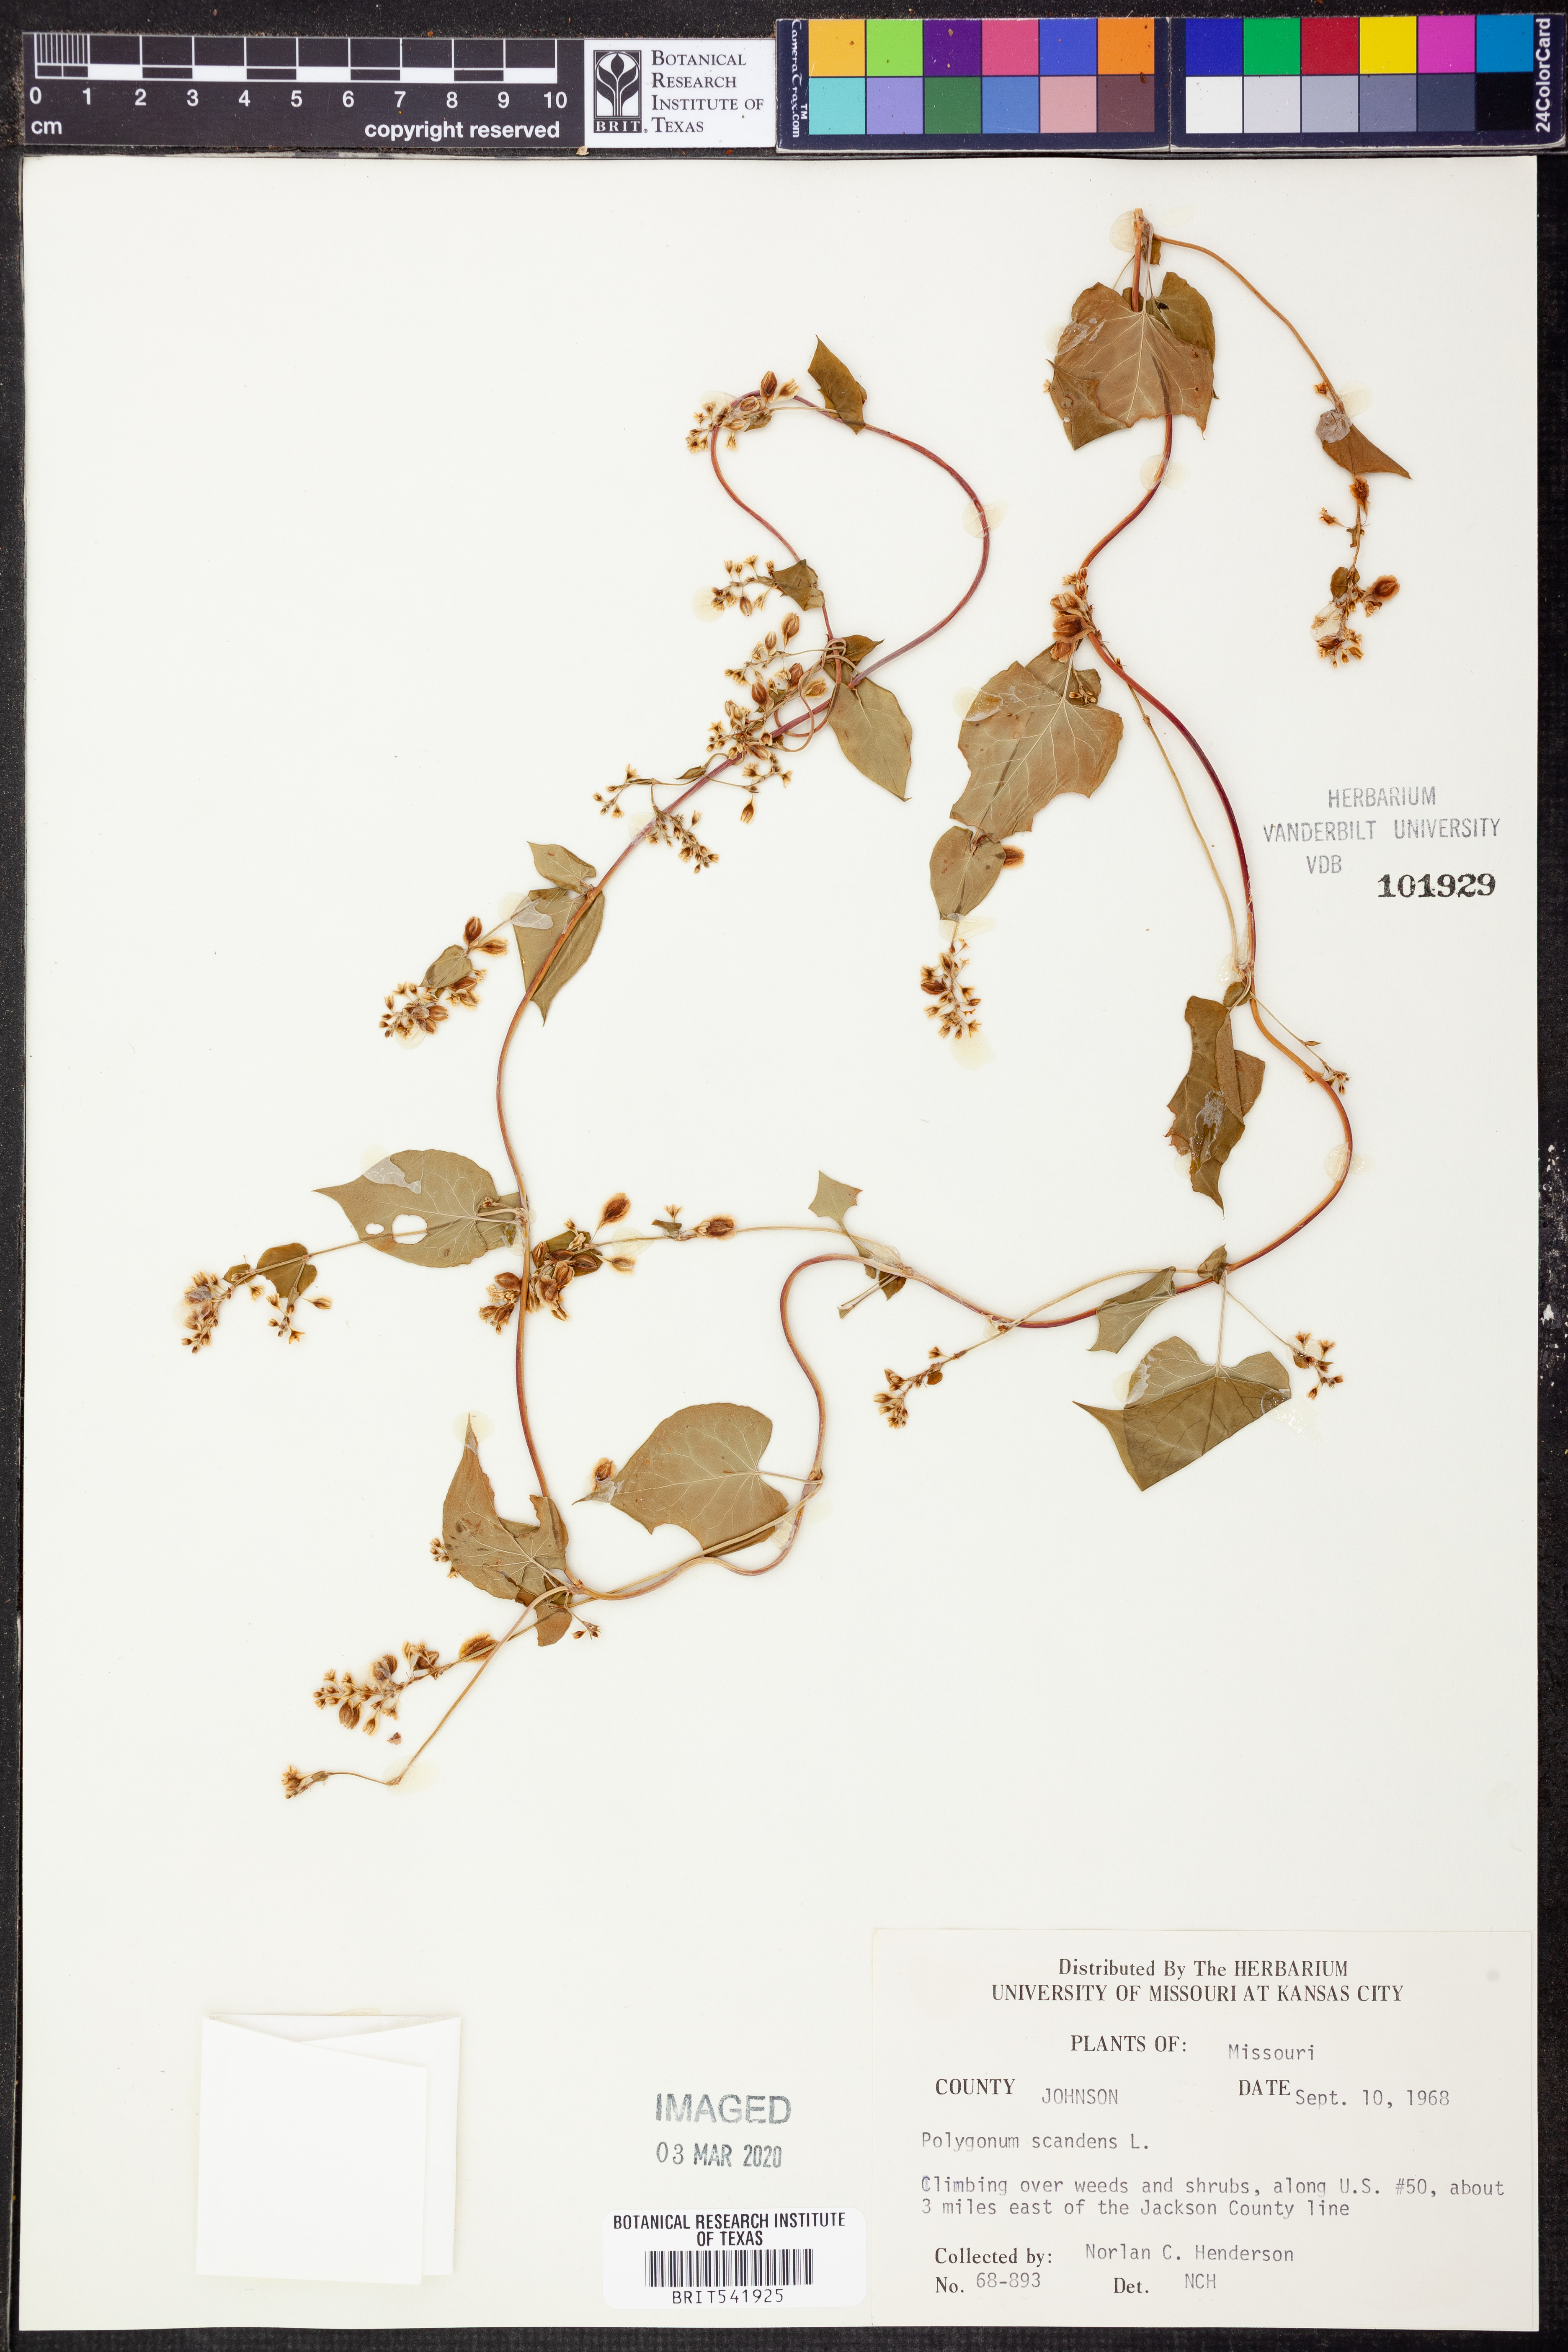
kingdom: Plantae
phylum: Tracheophyta
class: Magnoliopsida
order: Caryophyllales
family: Polygonaceae
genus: Fallopia
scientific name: Fallopia scandens
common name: Climbing false buckwheat
